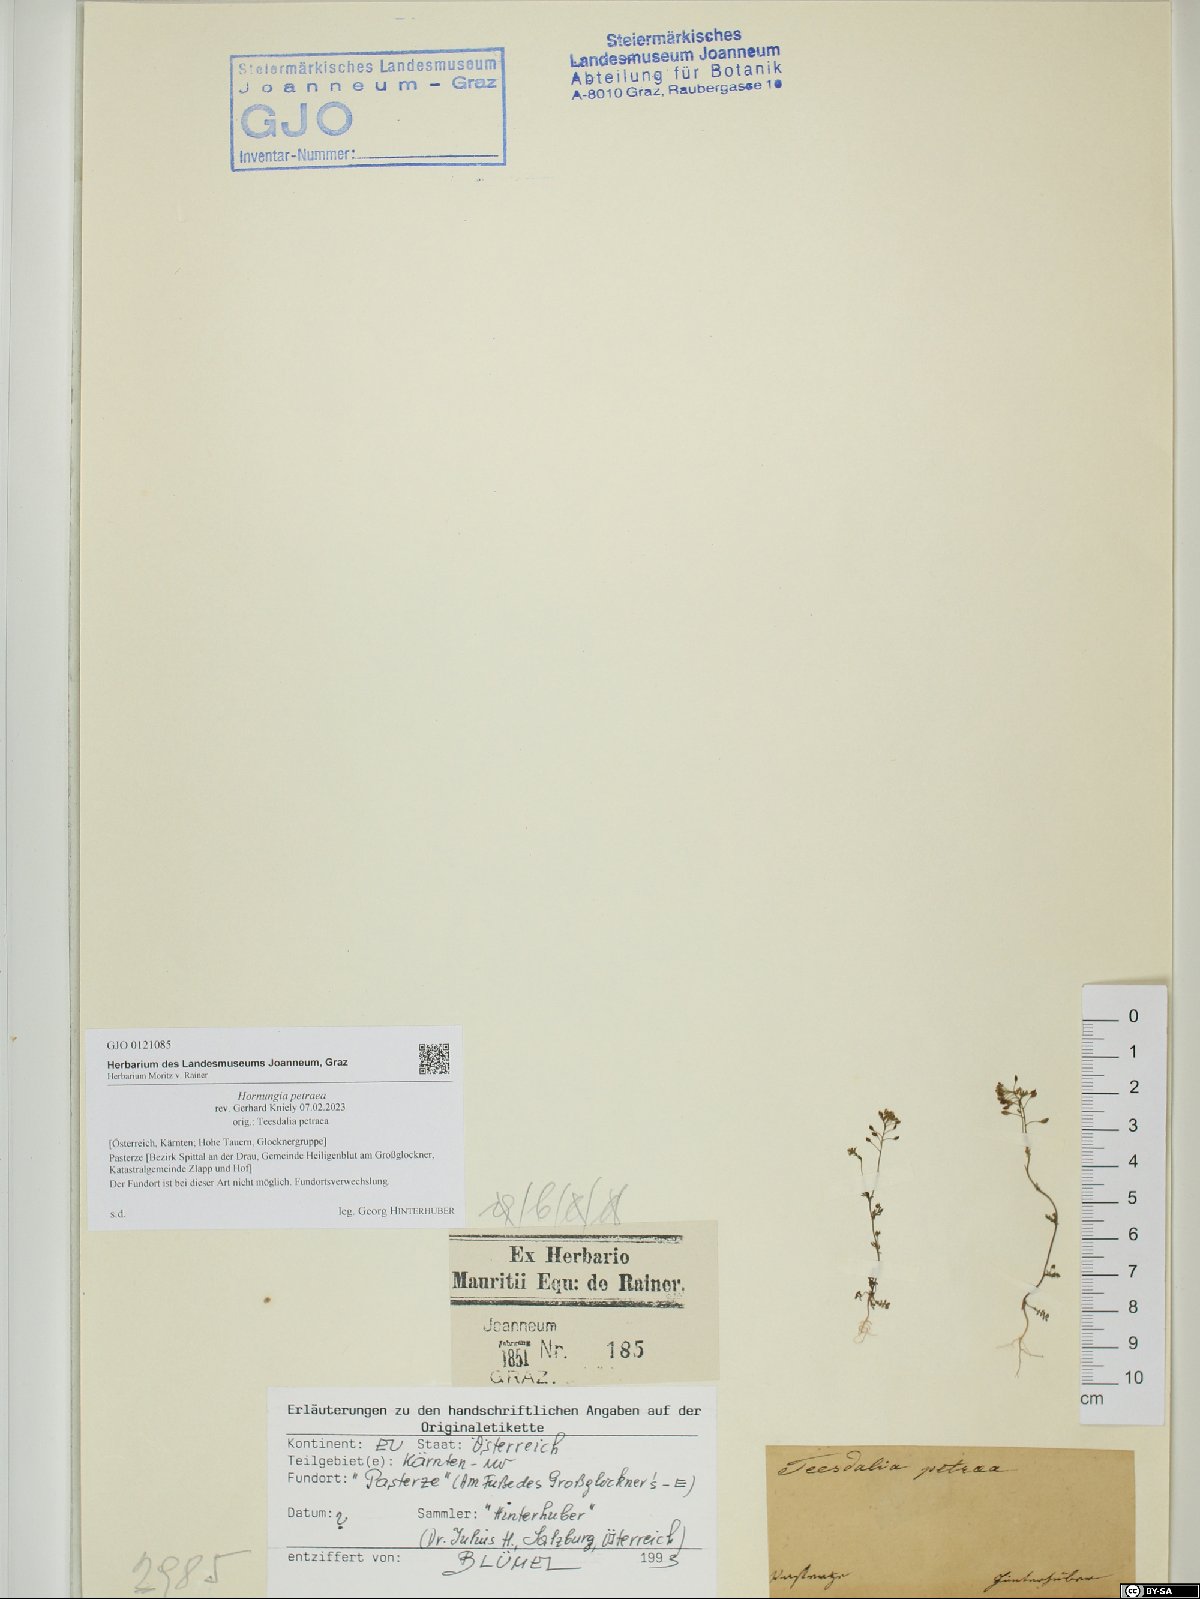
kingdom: Plantae
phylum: Tracheophyta
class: Magnoliopsida
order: Brassicales
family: Brassicaceae
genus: Hornungia
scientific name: Hornungia petraea
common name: Hutchinsia
